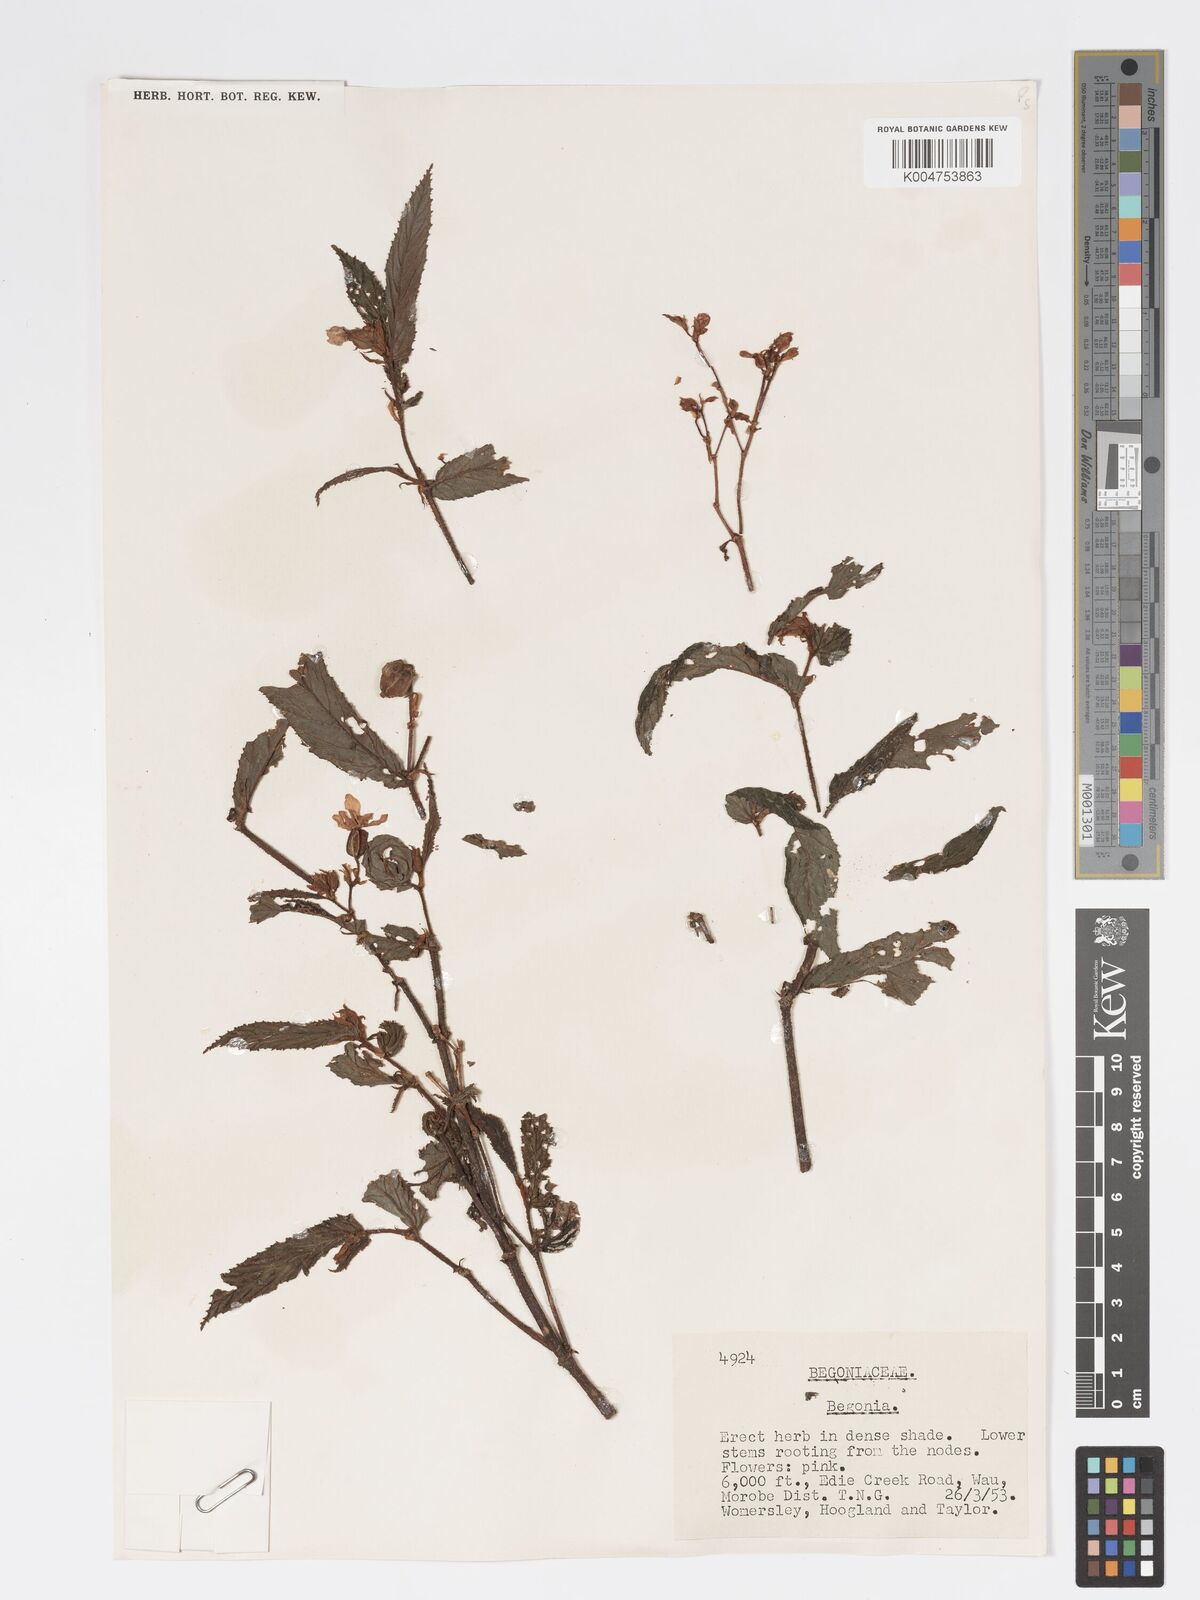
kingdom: Plantae
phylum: Tracheophyta
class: Magnoliopsida
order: Cucurbitales
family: Begoniaceae
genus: Begonia
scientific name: Begonia
